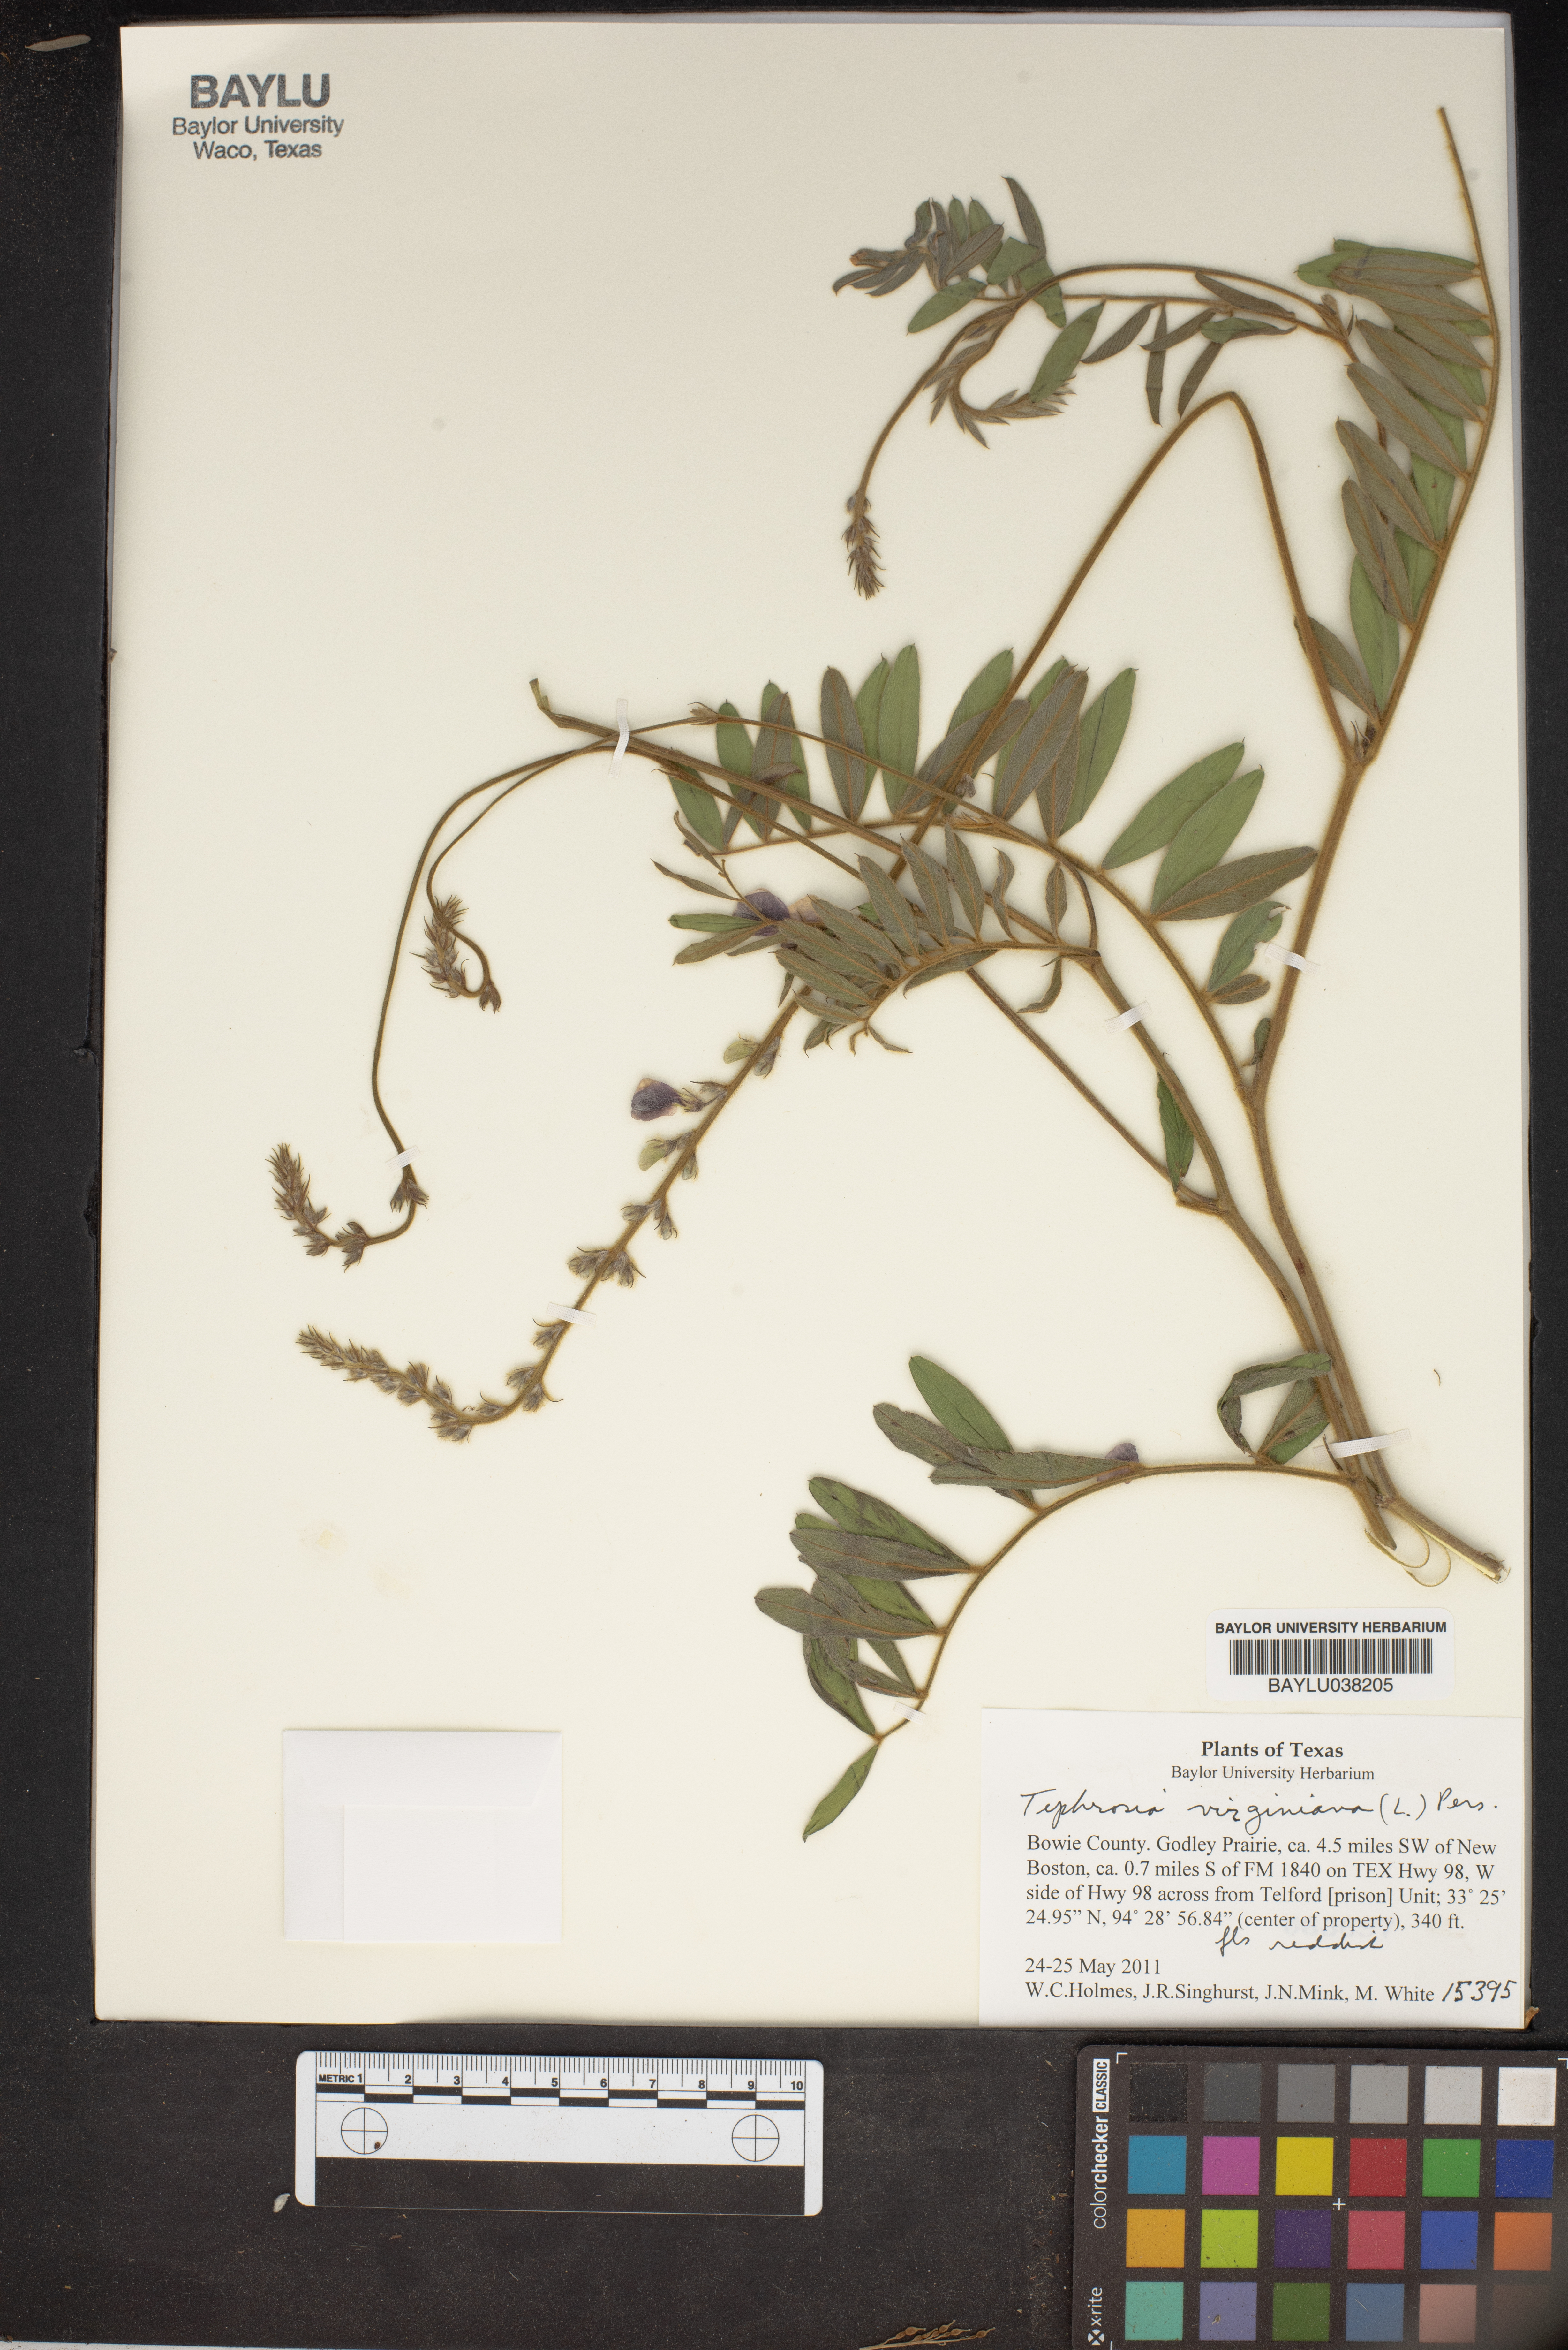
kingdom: Plantae
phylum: Tracheophyta
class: Magnoliopsida
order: Fabales
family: Fabaceae
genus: Tephrosia
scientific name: Tephrosia virginiana
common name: Rabbit-pea
